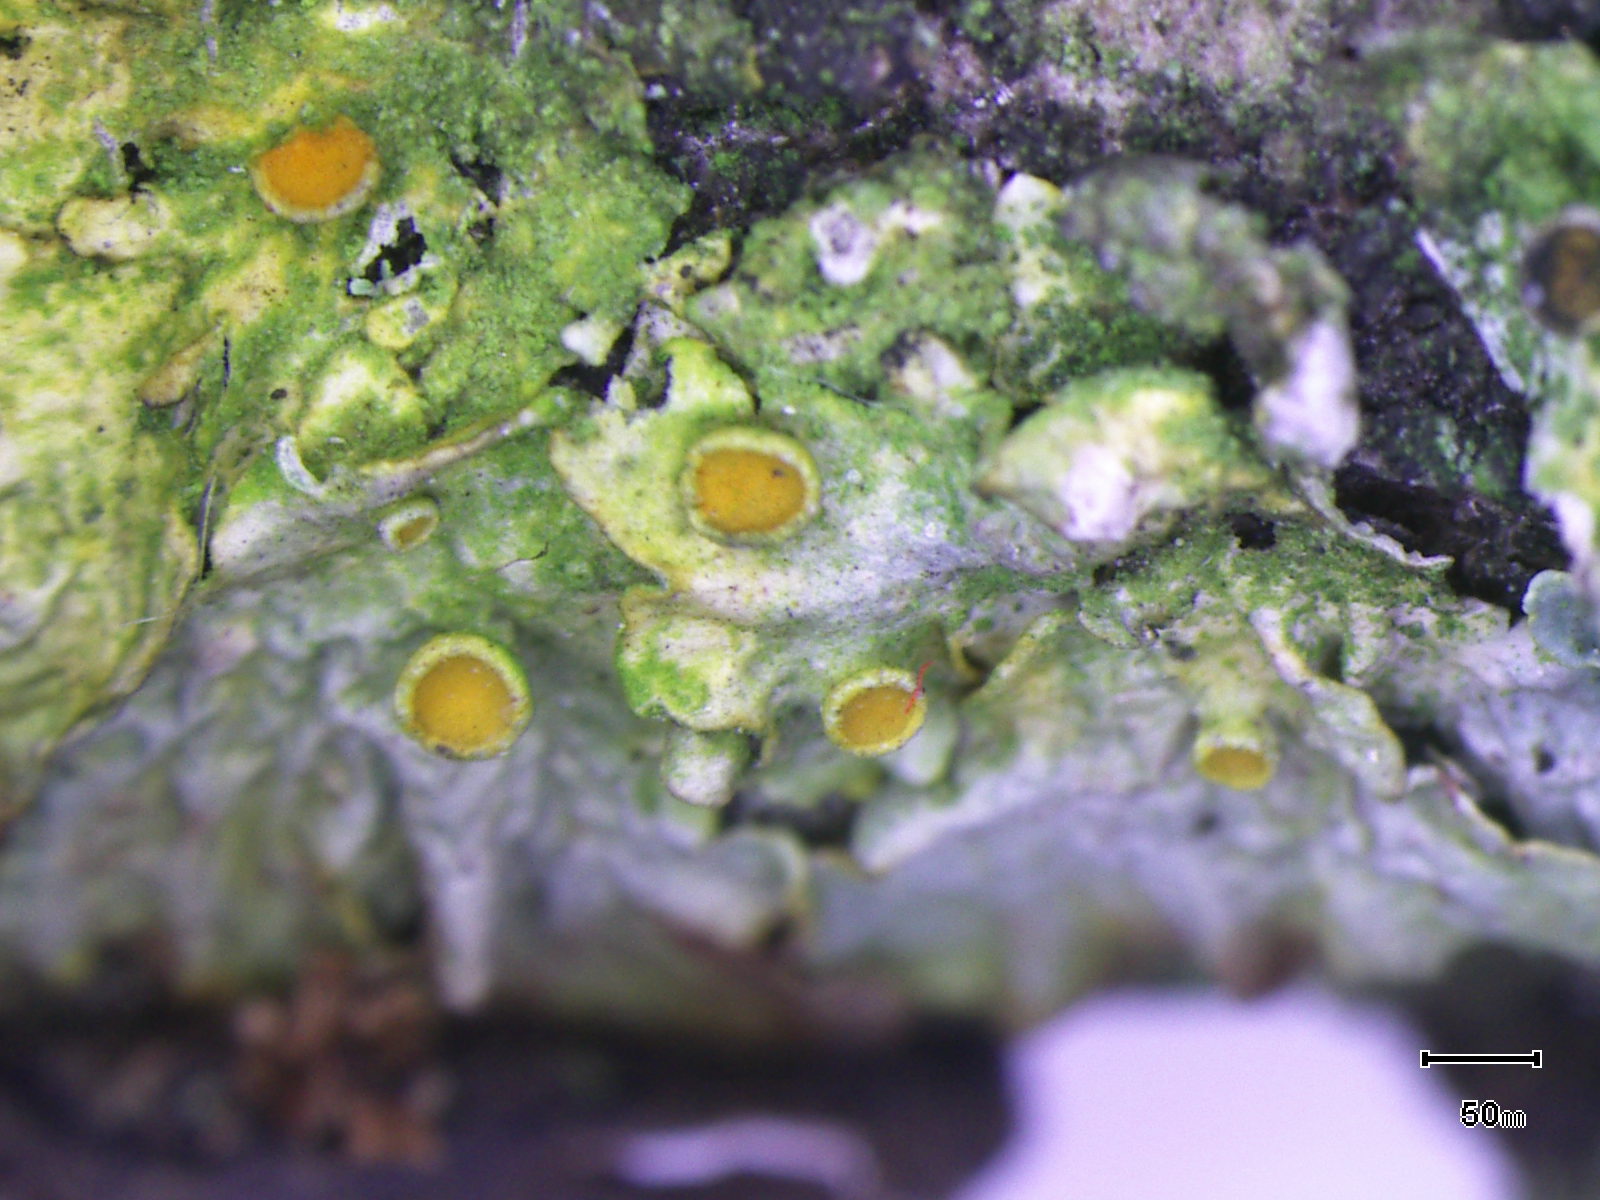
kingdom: Fungi
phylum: Ascomycota
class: Lecanoromycetes
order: Teloschistales
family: Teloschistaceae
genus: Xanthoria
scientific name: Xanthoria parietina
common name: almindelig væggelav
